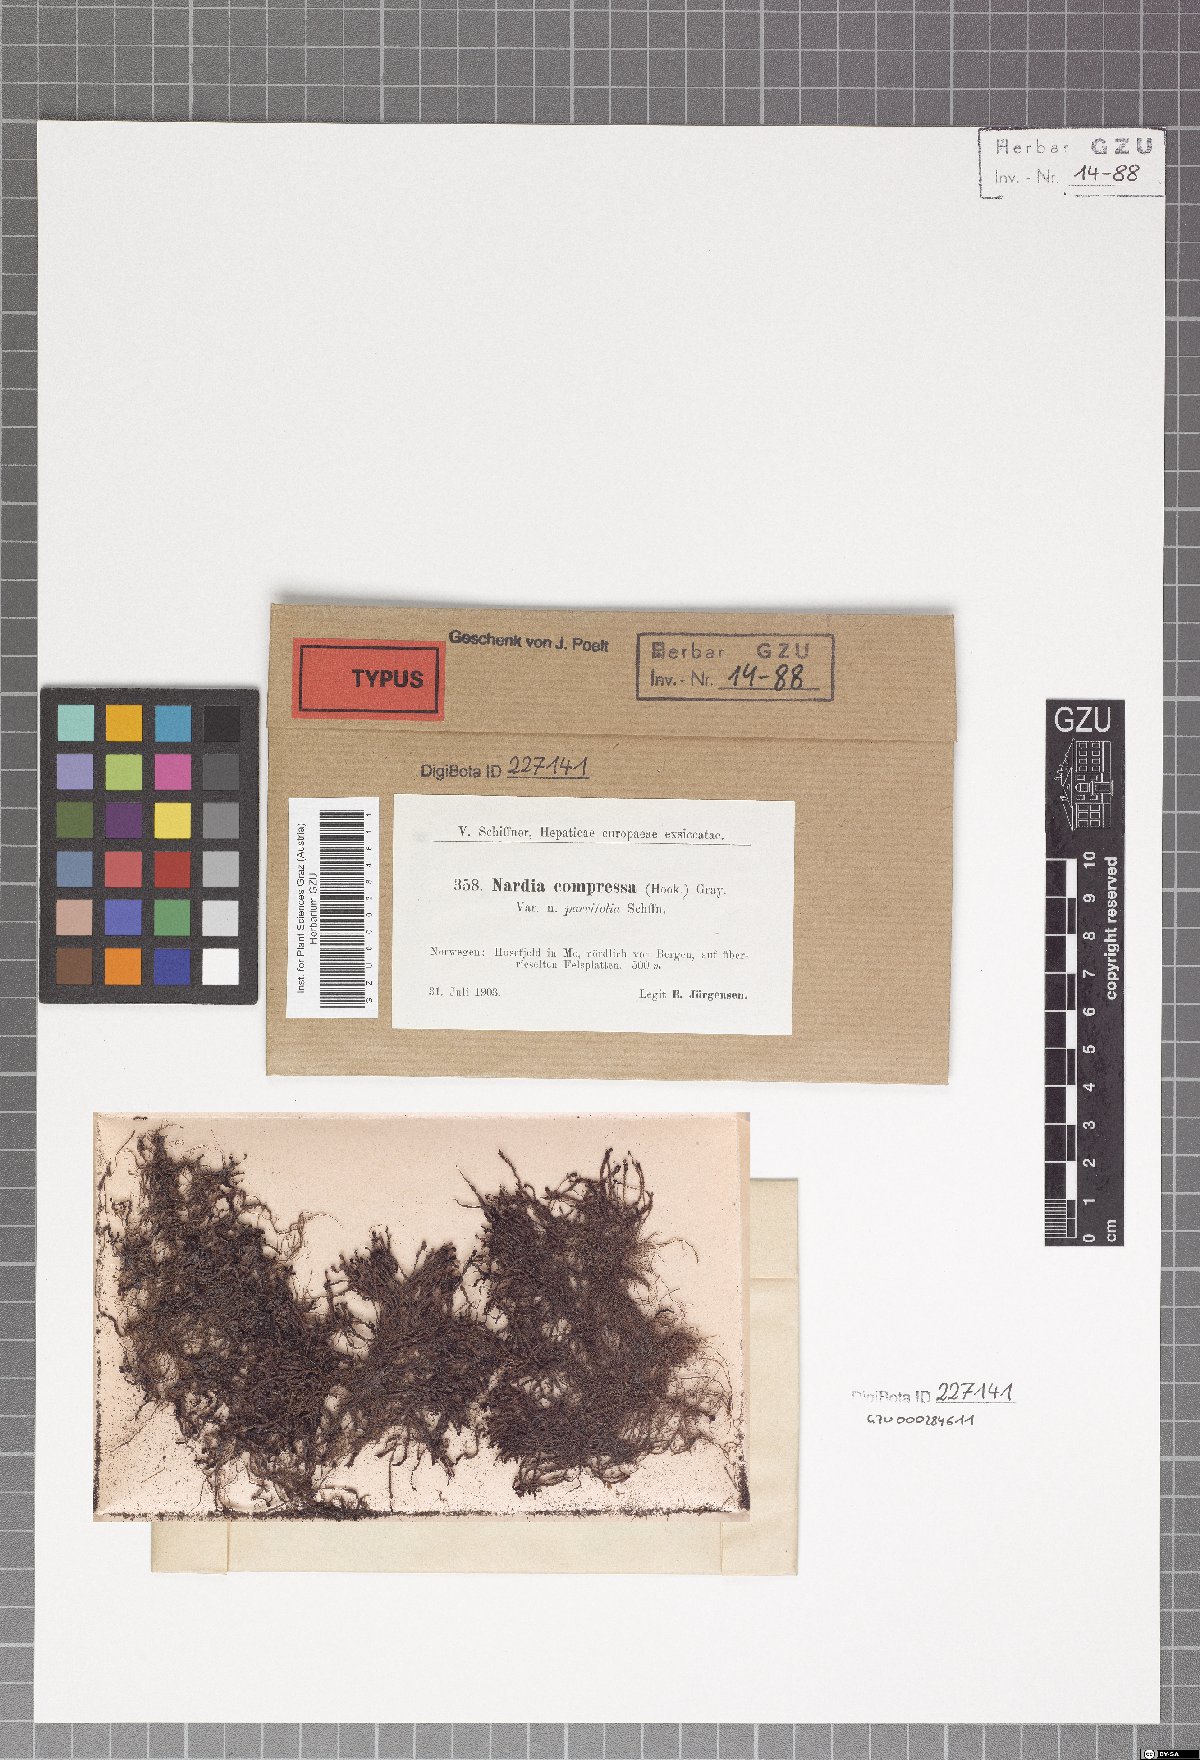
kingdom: Plantae
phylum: Marchantiophyta
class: Jungermanniopsida
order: Jungermanniales
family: Gymnomitriaceae
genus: Nardia
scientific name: Nardia compressa
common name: Compressed flapwort
